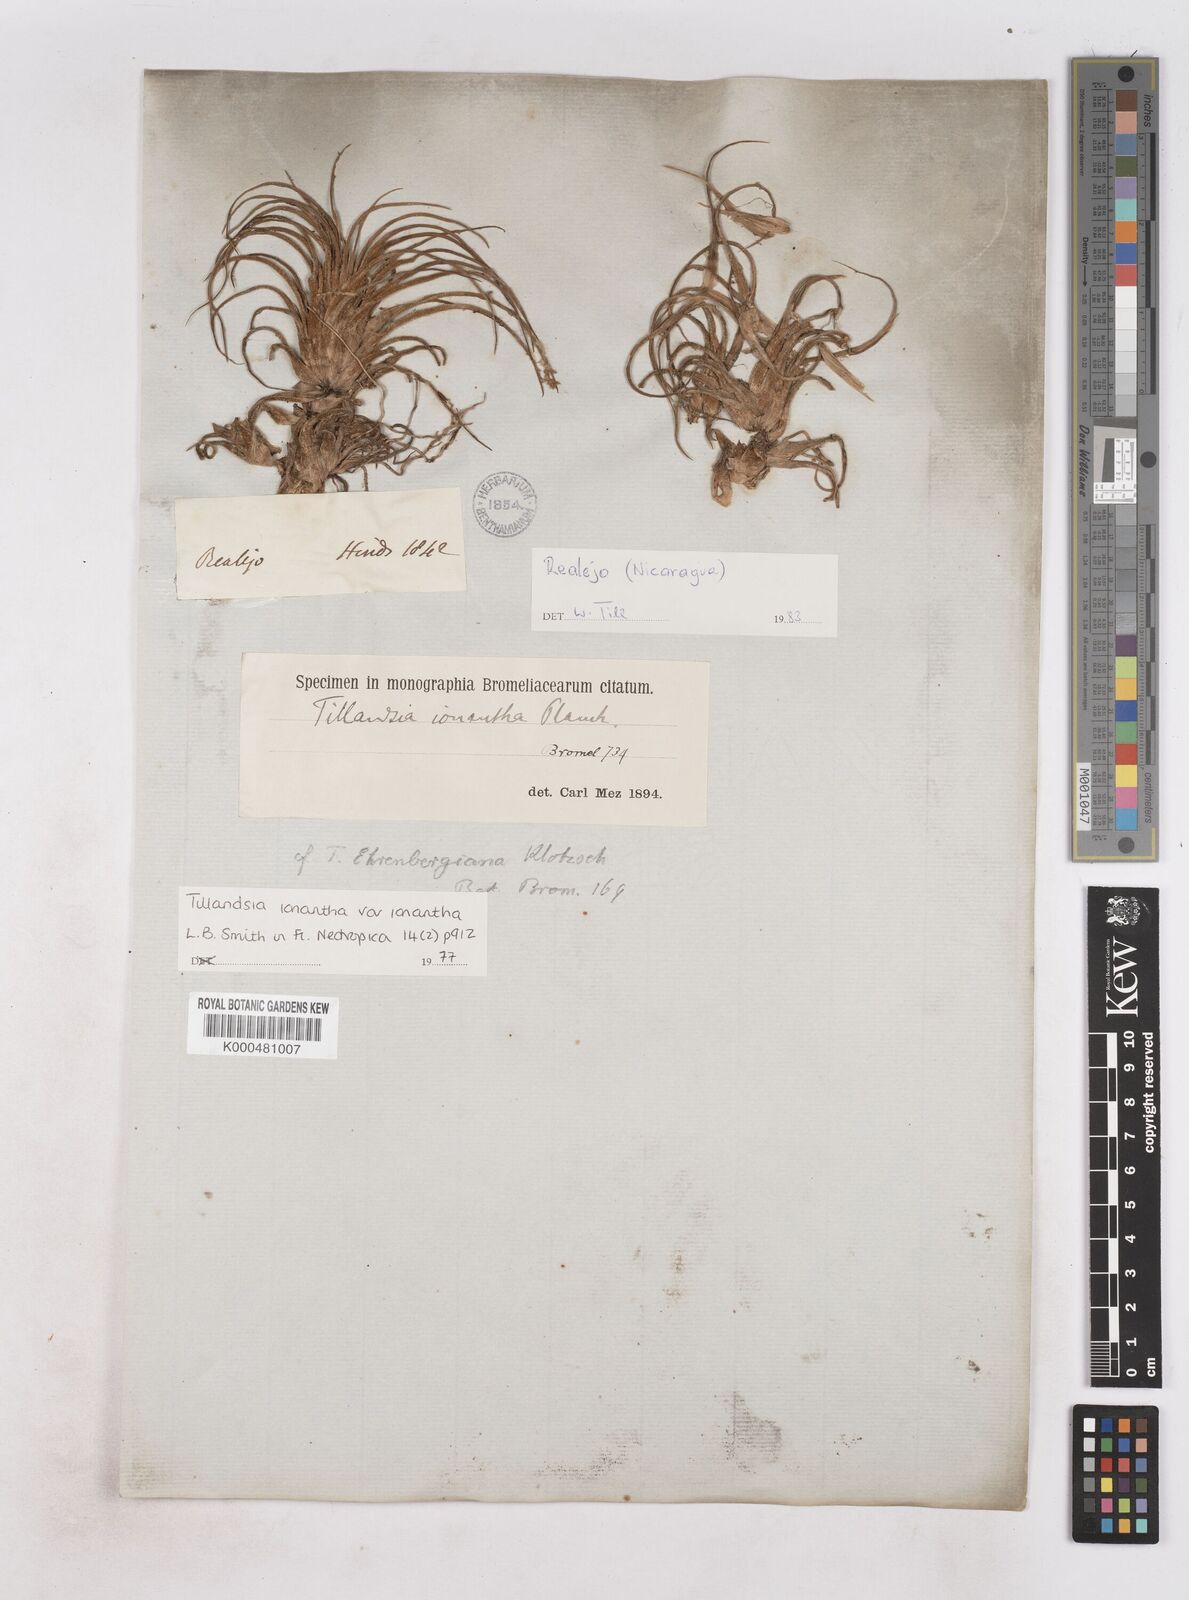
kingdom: Plantae
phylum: Tracheophyta
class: Liliopsida
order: Poales
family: Bromeliaceae
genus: Tillandsia
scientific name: Tillandsia ionantha
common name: Sky plant
